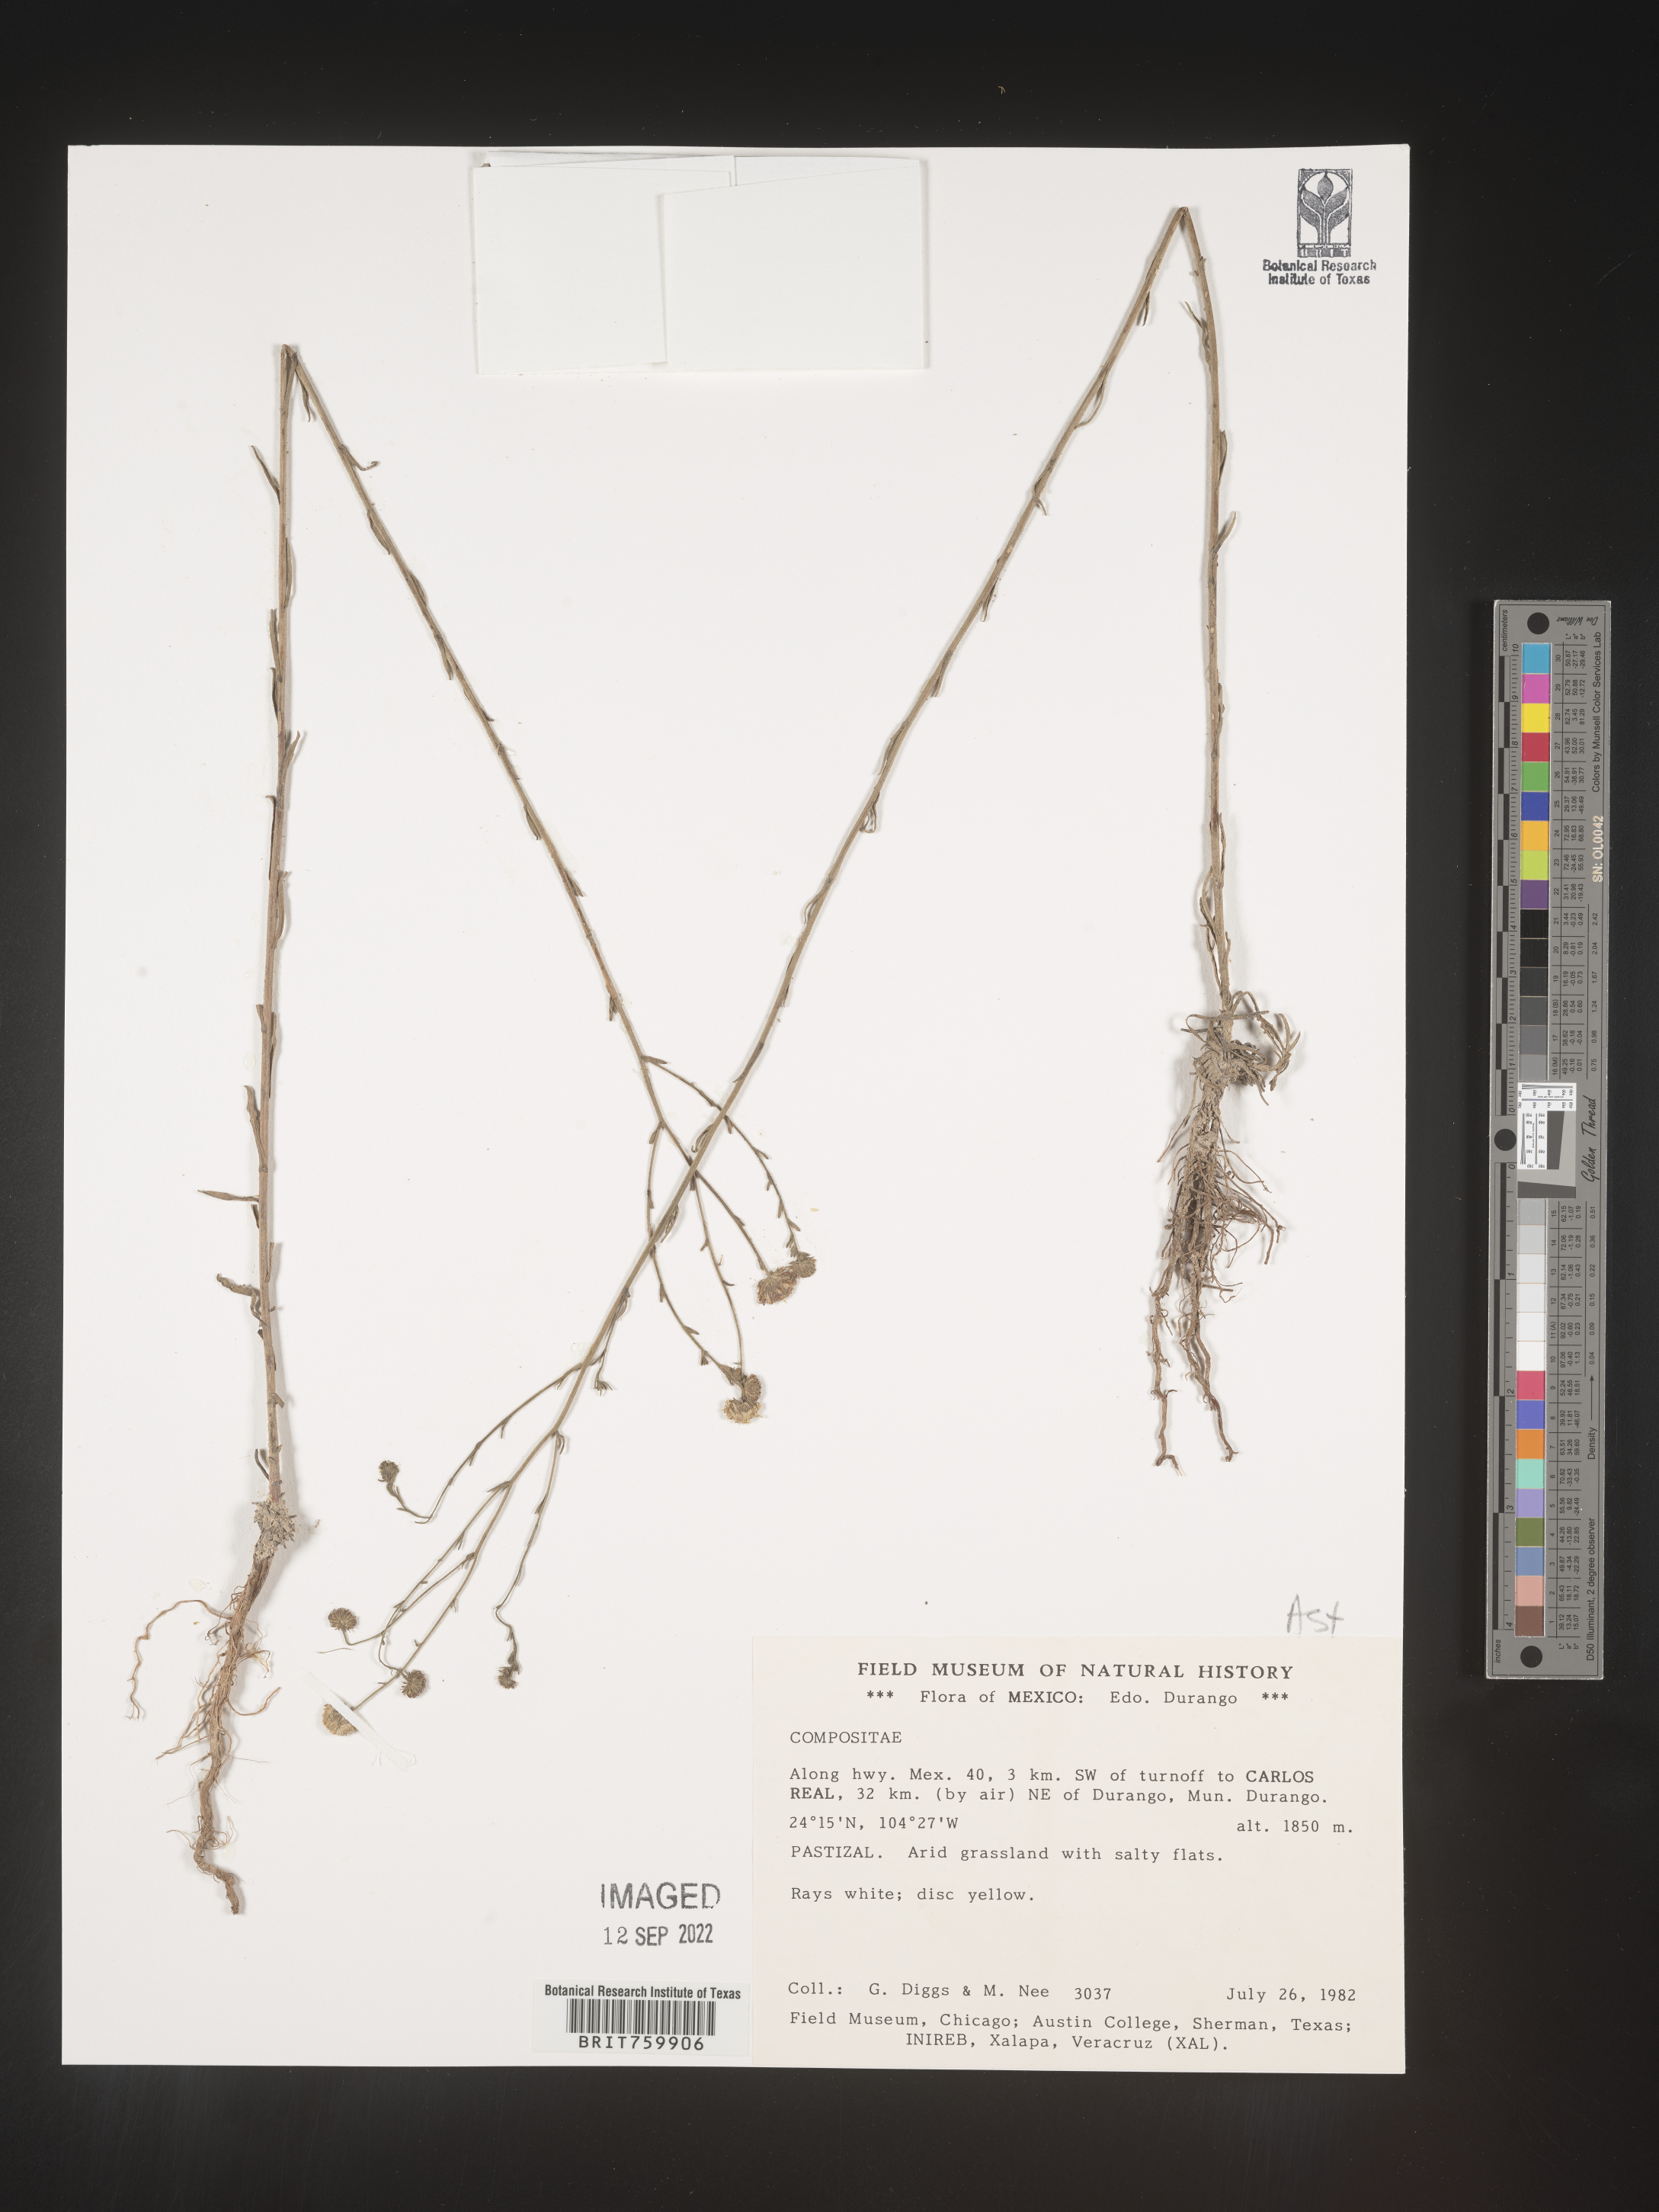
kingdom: Plantae
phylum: Tracheophyta
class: Magnoliopsida
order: Asterales
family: Asteraceae
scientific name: Asteraceae
